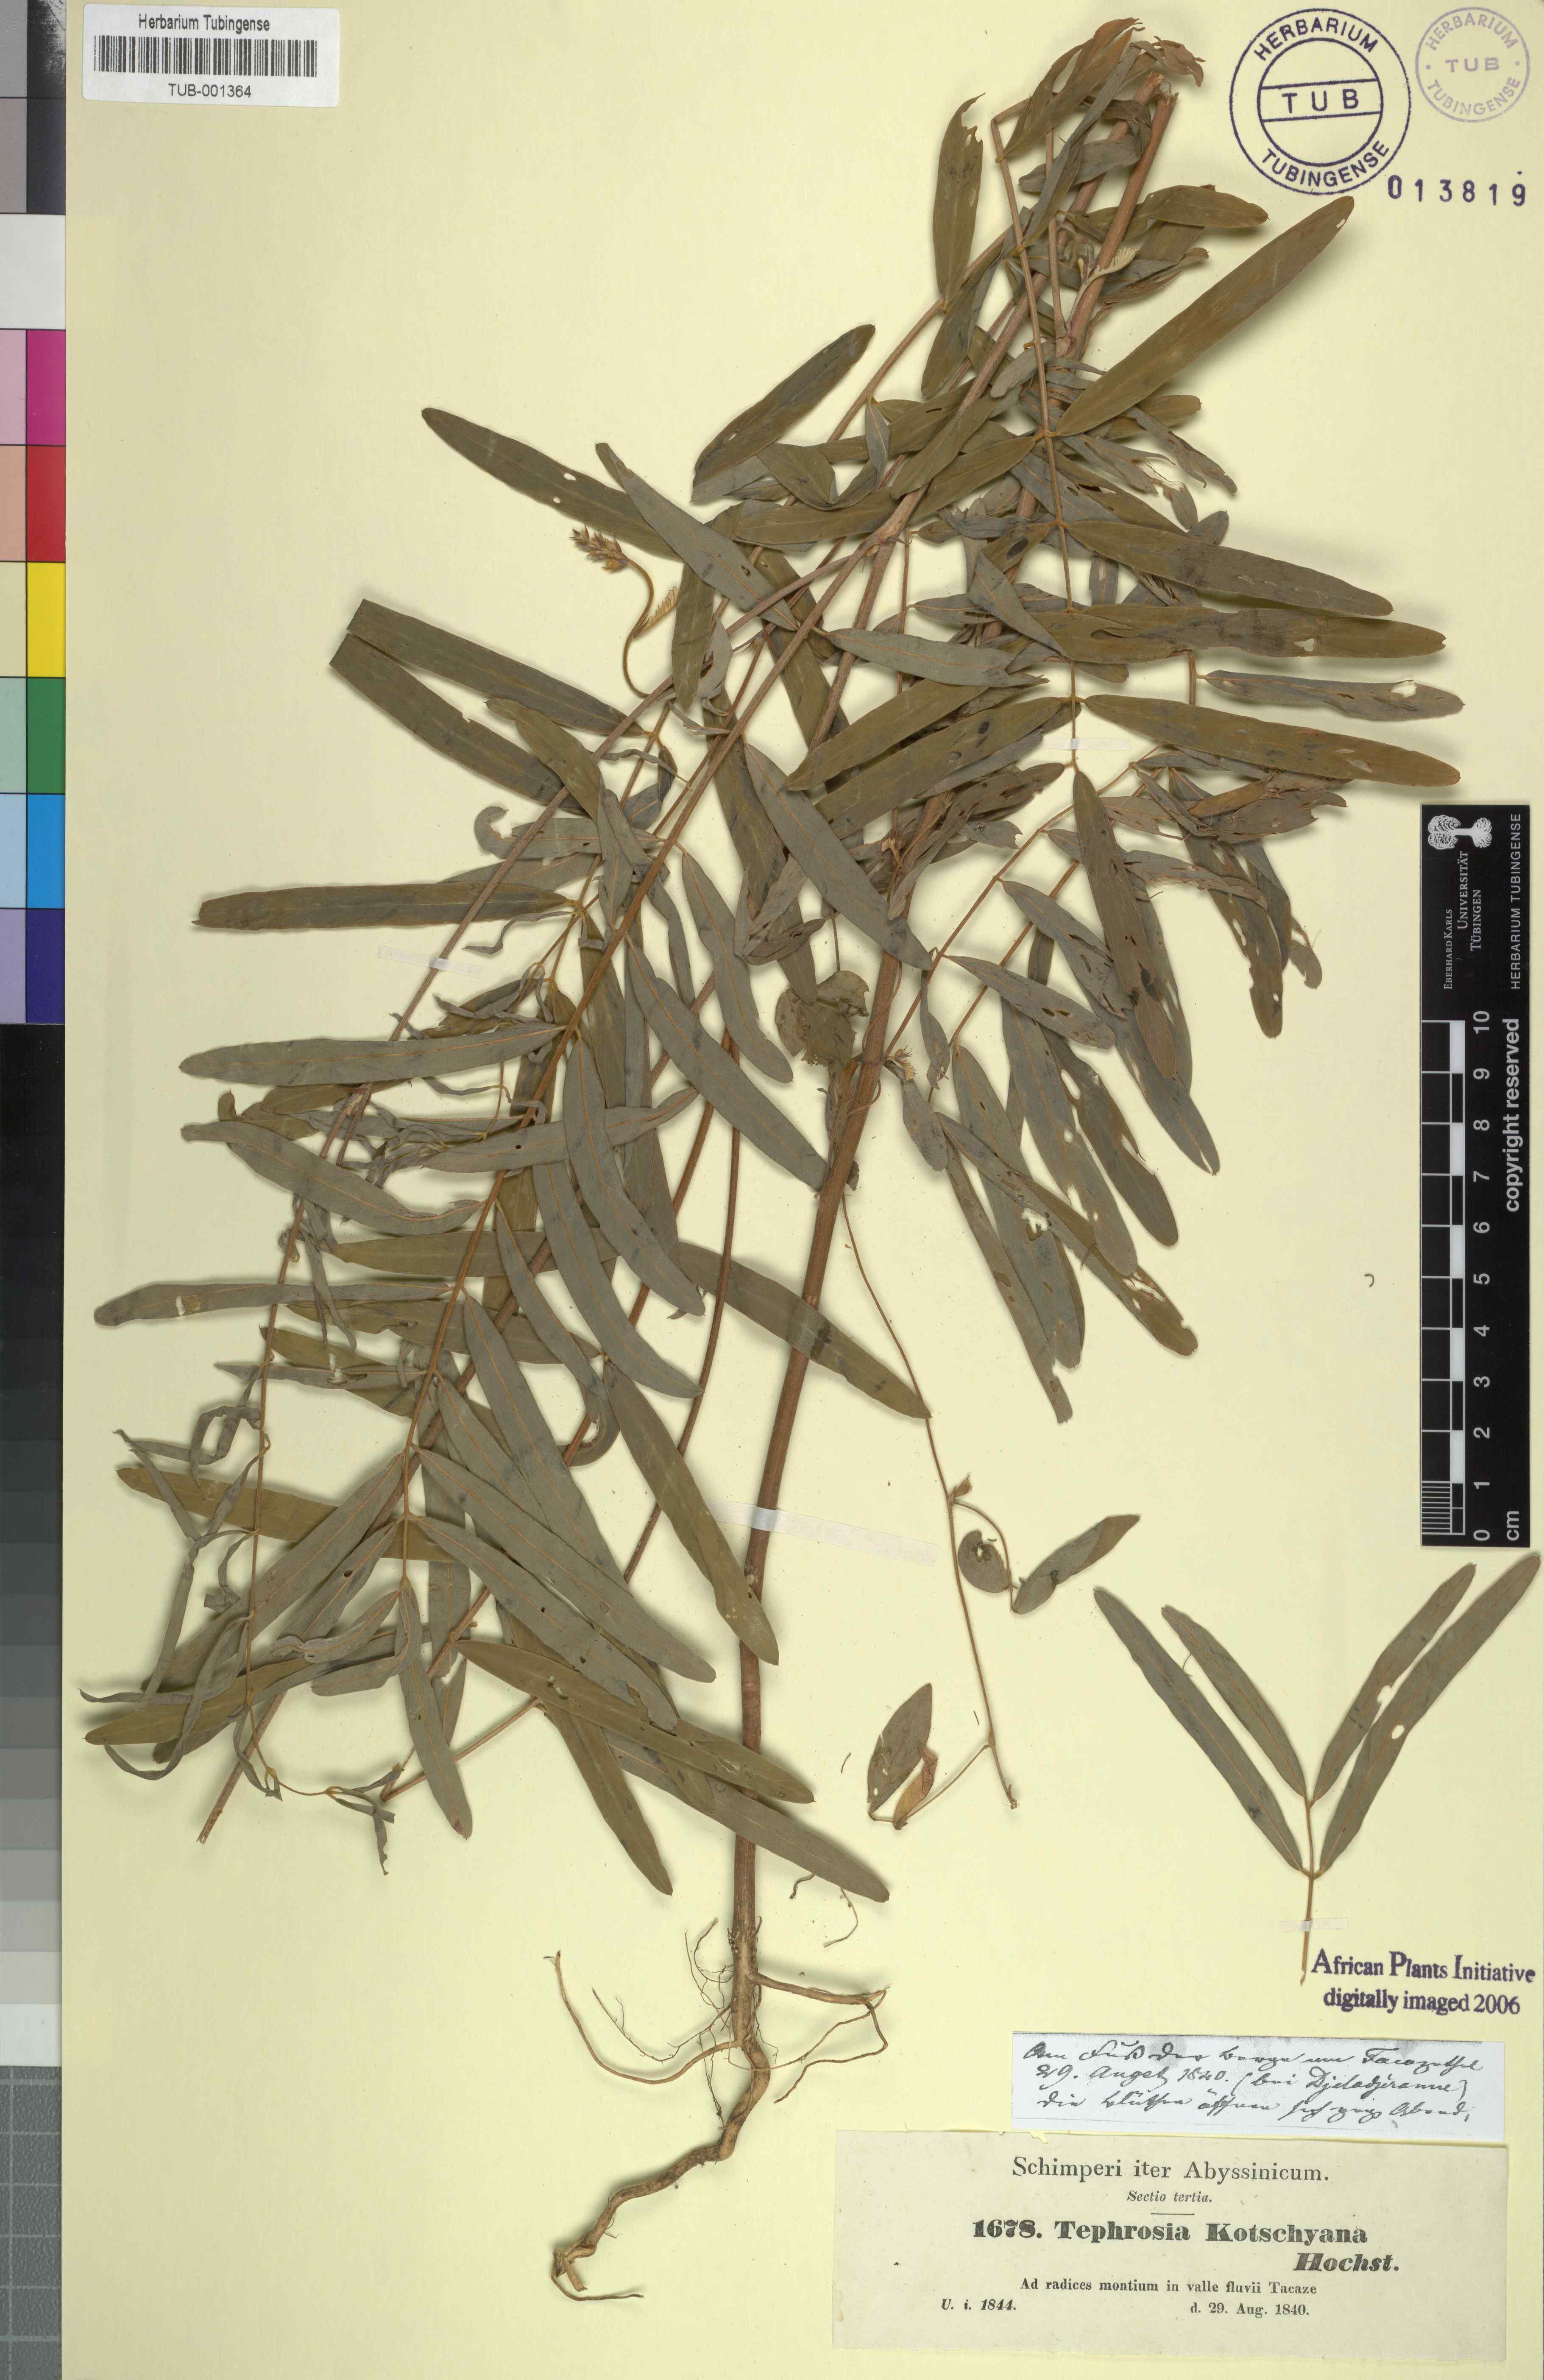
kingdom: Plantae
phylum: Tracheophyta
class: Magnoliopsida
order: Fabales
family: Fabaceae
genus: Tephrosia
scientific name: Tephrosia bracteolata
